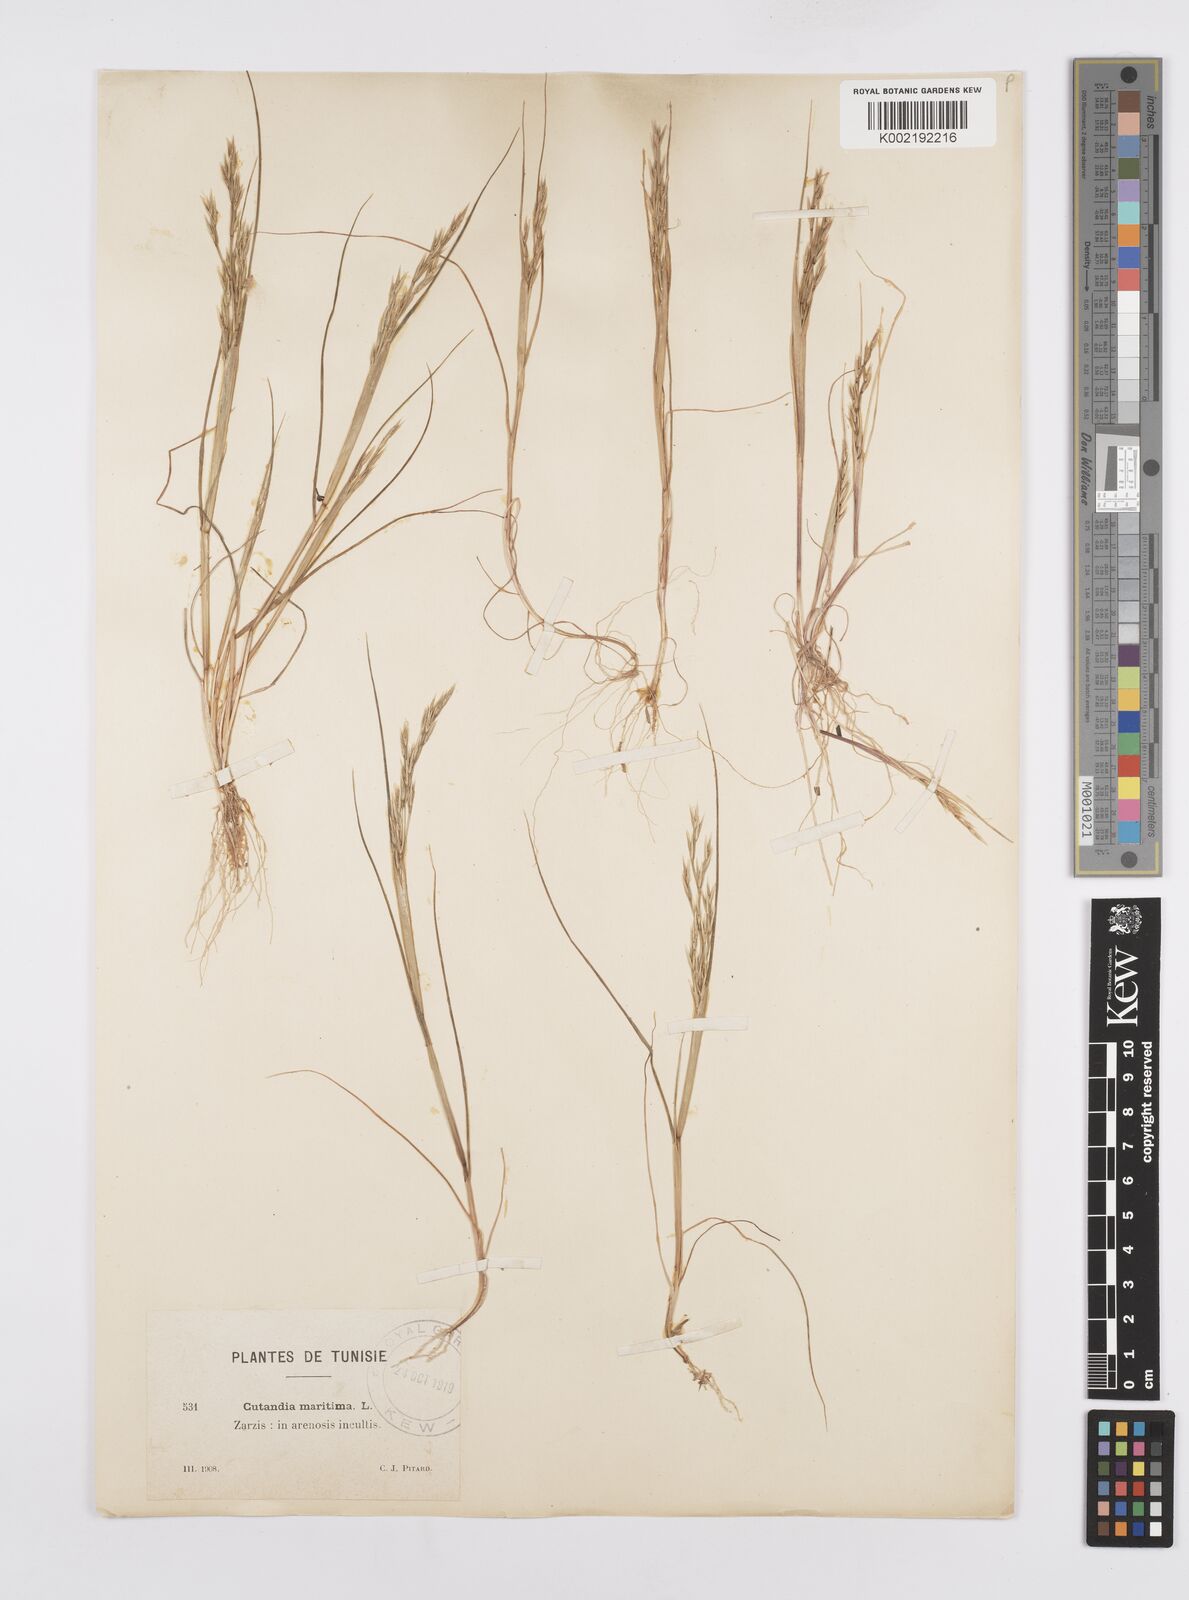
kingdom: Plantae
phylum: Tracheophyta
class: Liliopsida
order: Poales
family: Poaceae
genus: Cutandia
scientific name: Cutandia maritima
